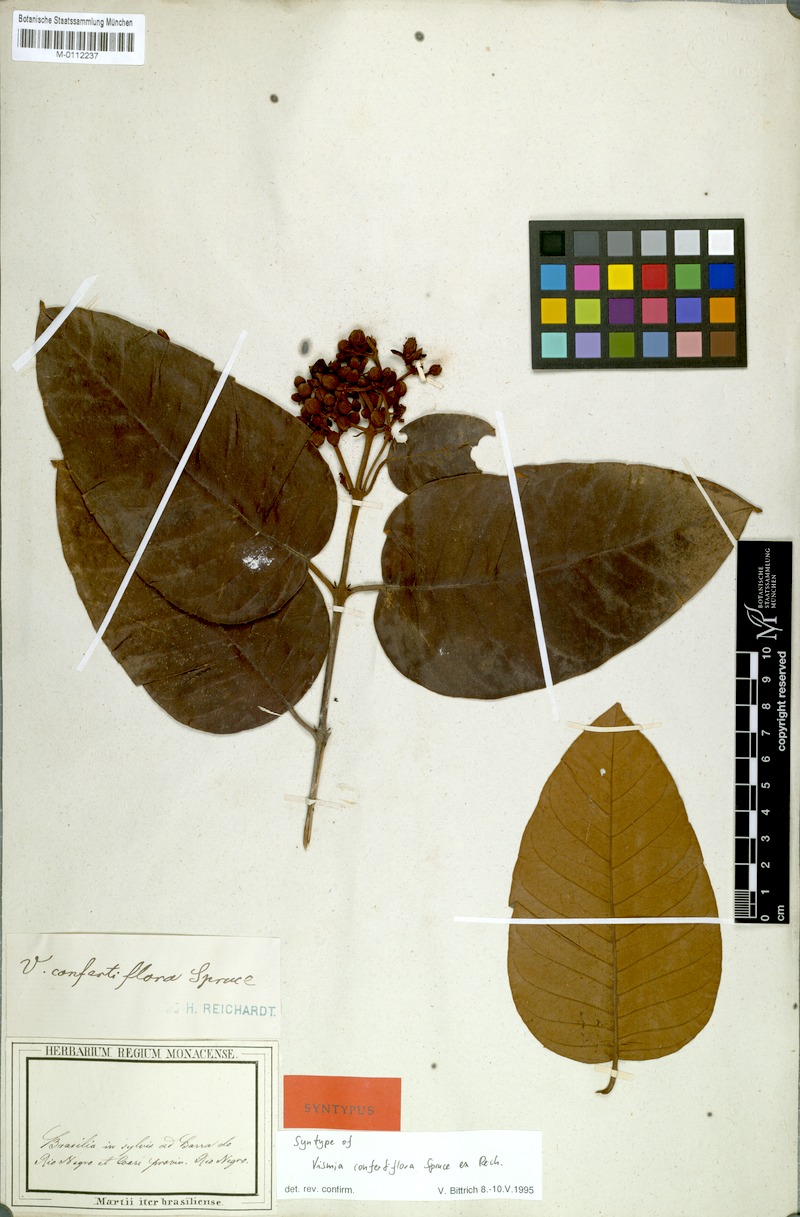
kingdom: Plantae
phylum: Tracheophyta
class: Magnoliopsida
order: Malpighiales
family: Hypericaceae
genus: Vismia
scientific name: Vismia baccifera
